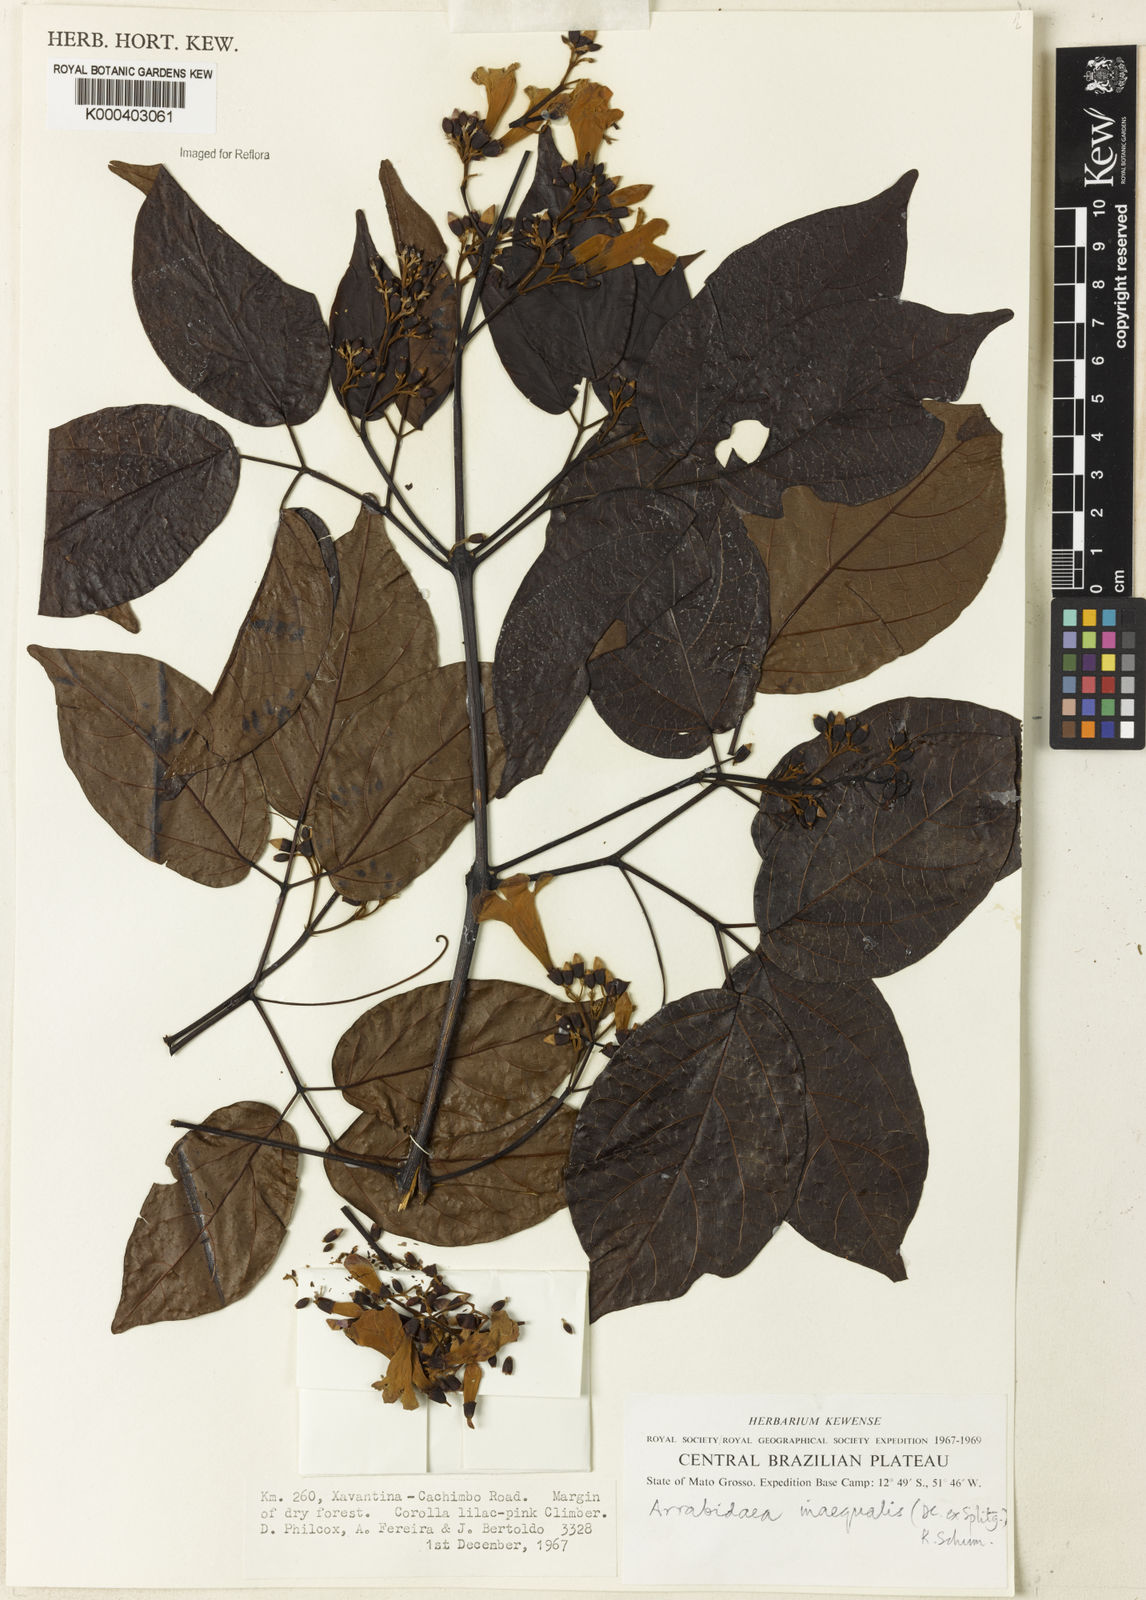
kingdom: Plantae
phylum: Tracheophyta
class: Magnoliopsida
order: Lamiales
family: Bignoniaceae
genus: Cuspidaria
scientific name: Cuspidaria inaequalis
